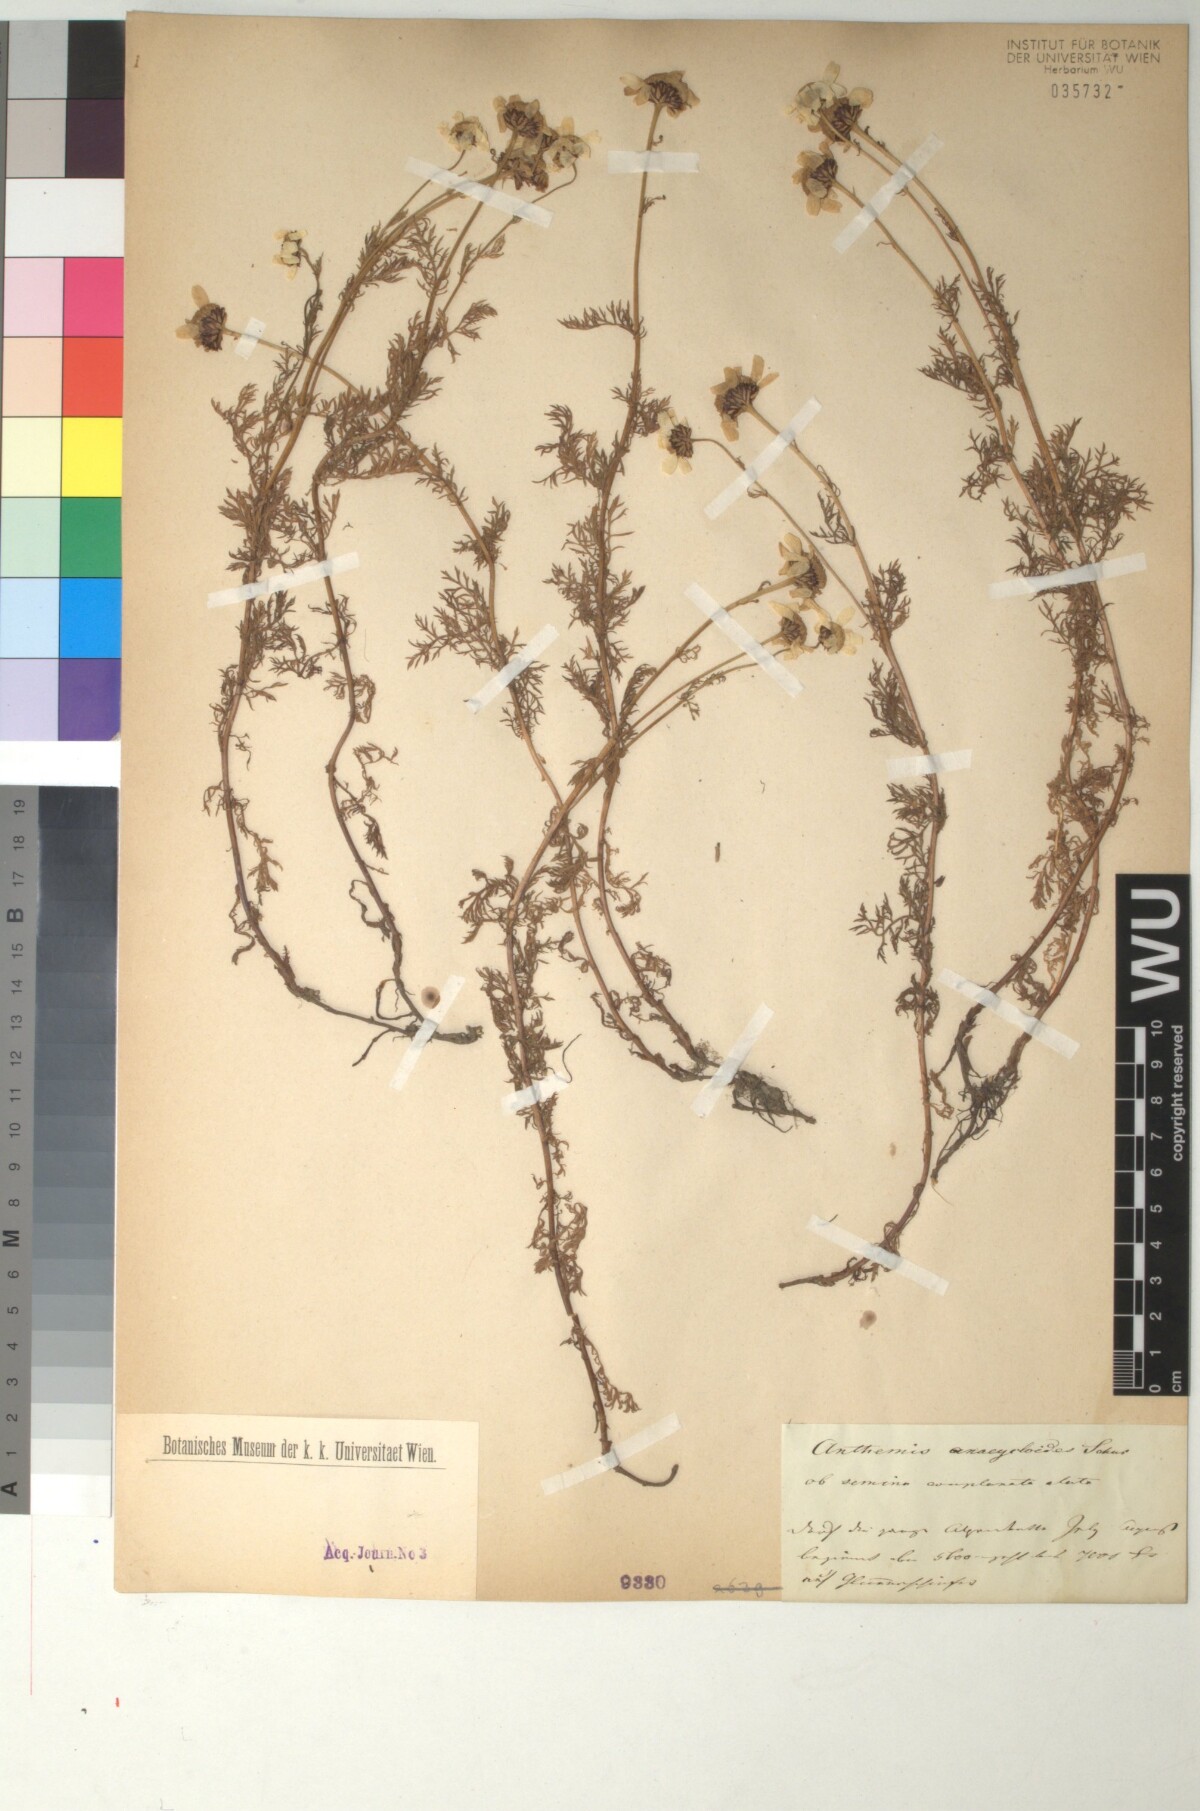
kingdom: Plantae
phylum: Tracheophyta
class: Magnoliopsida
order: Asterales
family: Asteraceae
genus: Anthemis
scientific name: Anthemis
